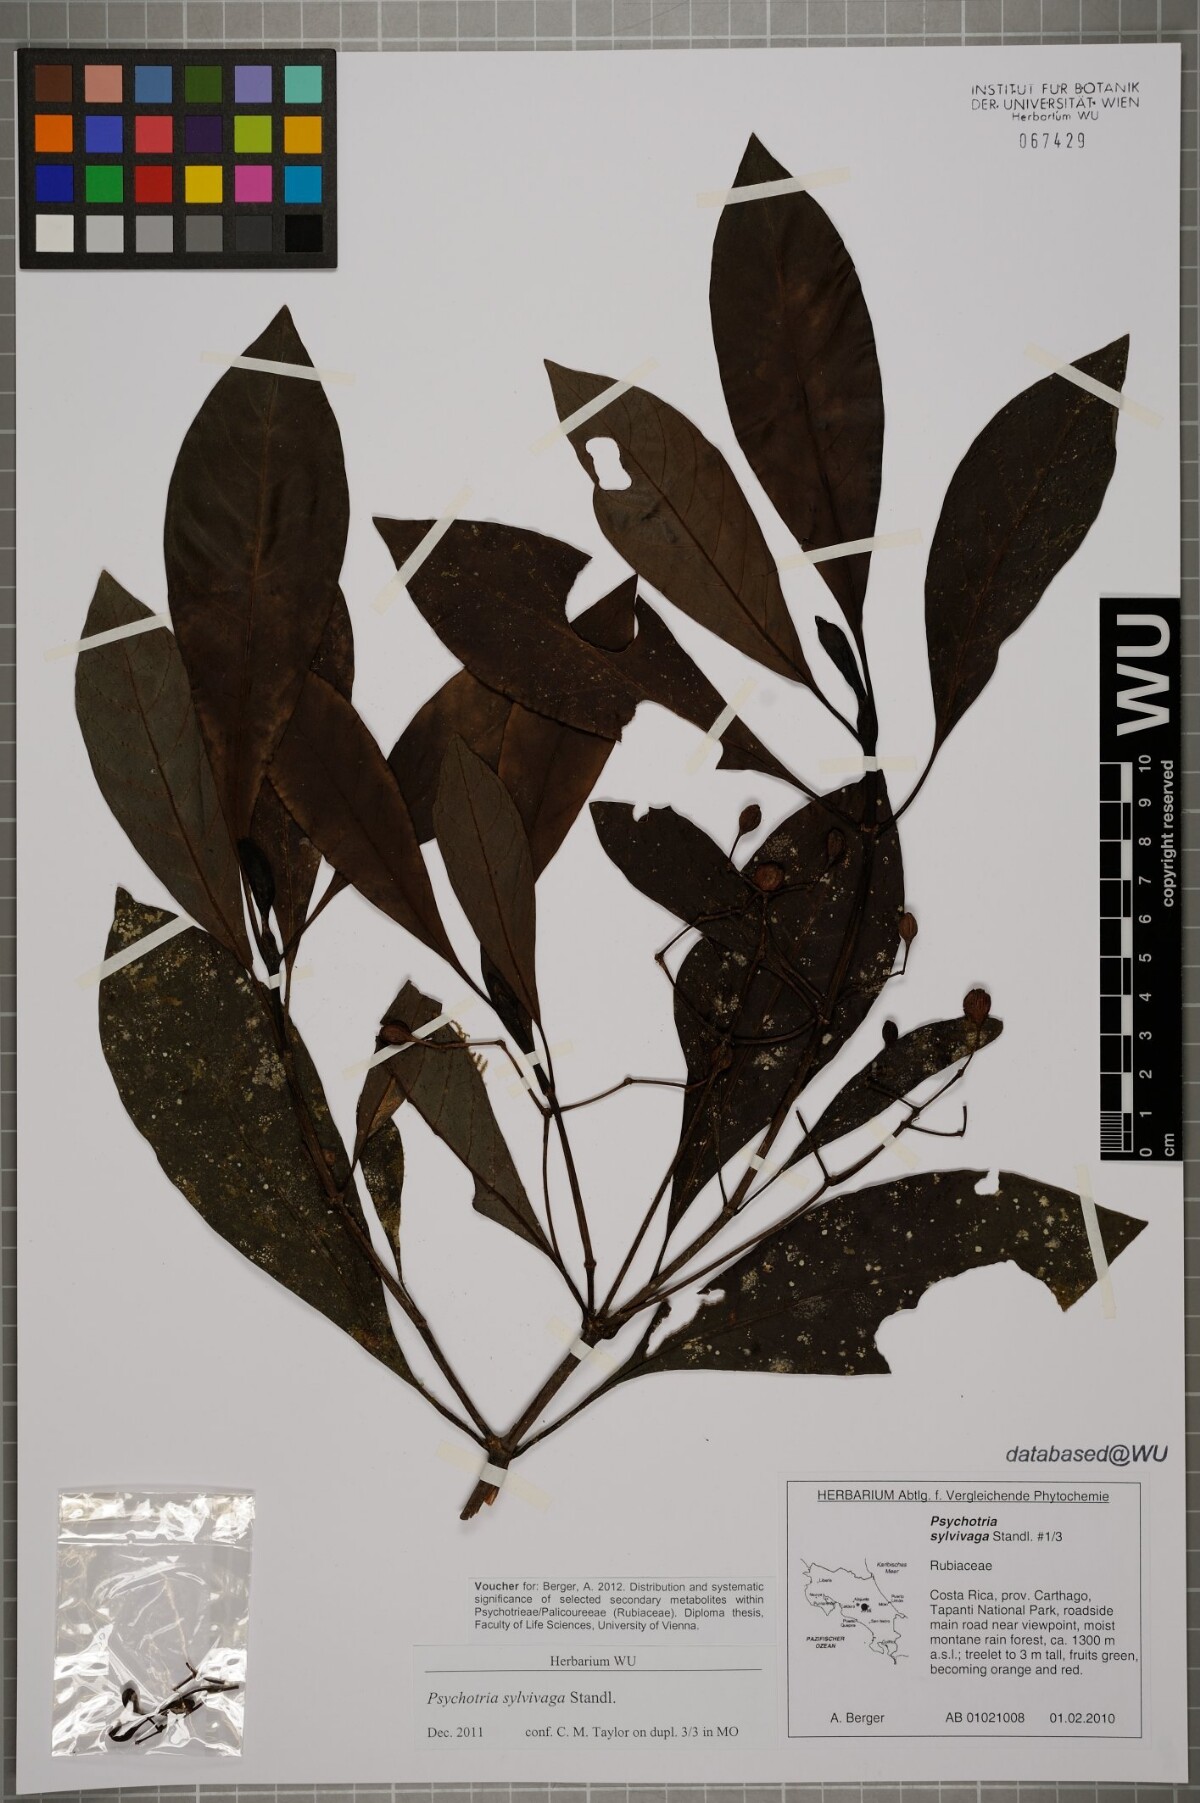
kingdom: Plantae
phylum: Tracheophyta
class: Magnoliopsida
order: Gentianales
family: Rubiaceae
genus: Psychotria
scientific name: Psychotria sylvivaga
